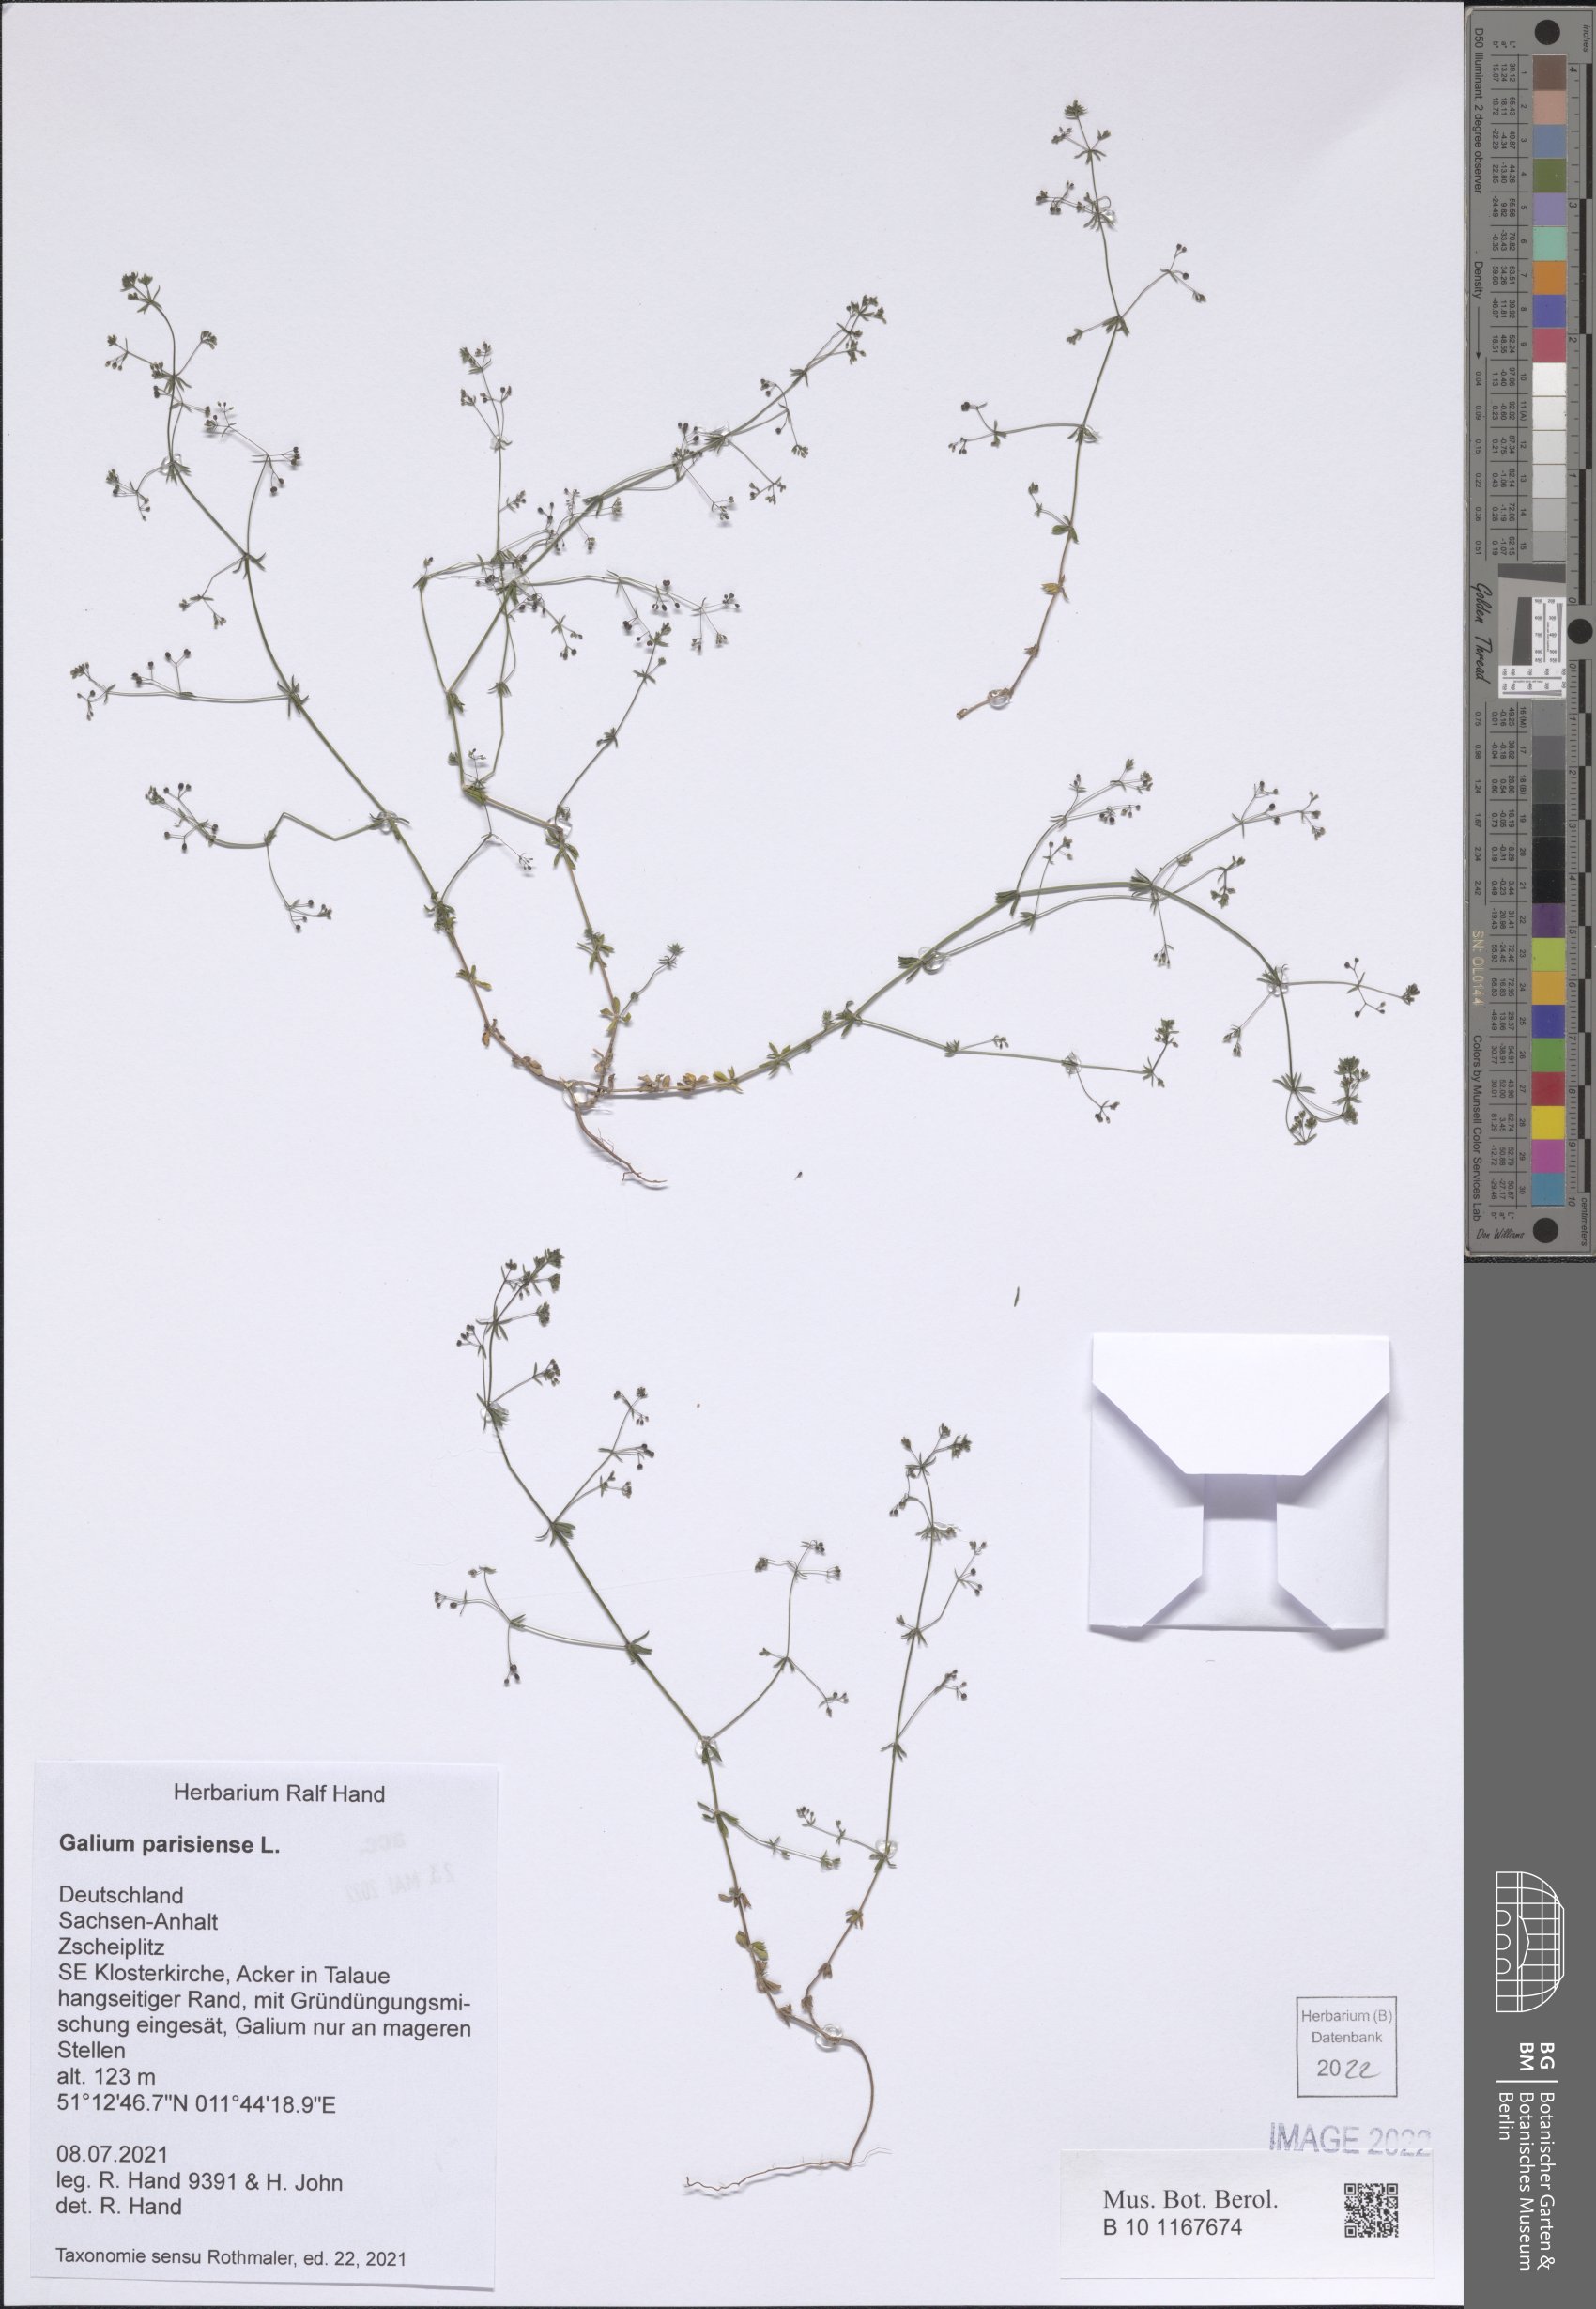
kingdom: Plantae
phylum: Tracheophyta
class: Magnoliopsida
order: Gentianales
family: Rubiaceae
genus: Galium
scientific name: Galium parisiense
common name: Wall bedstraw
